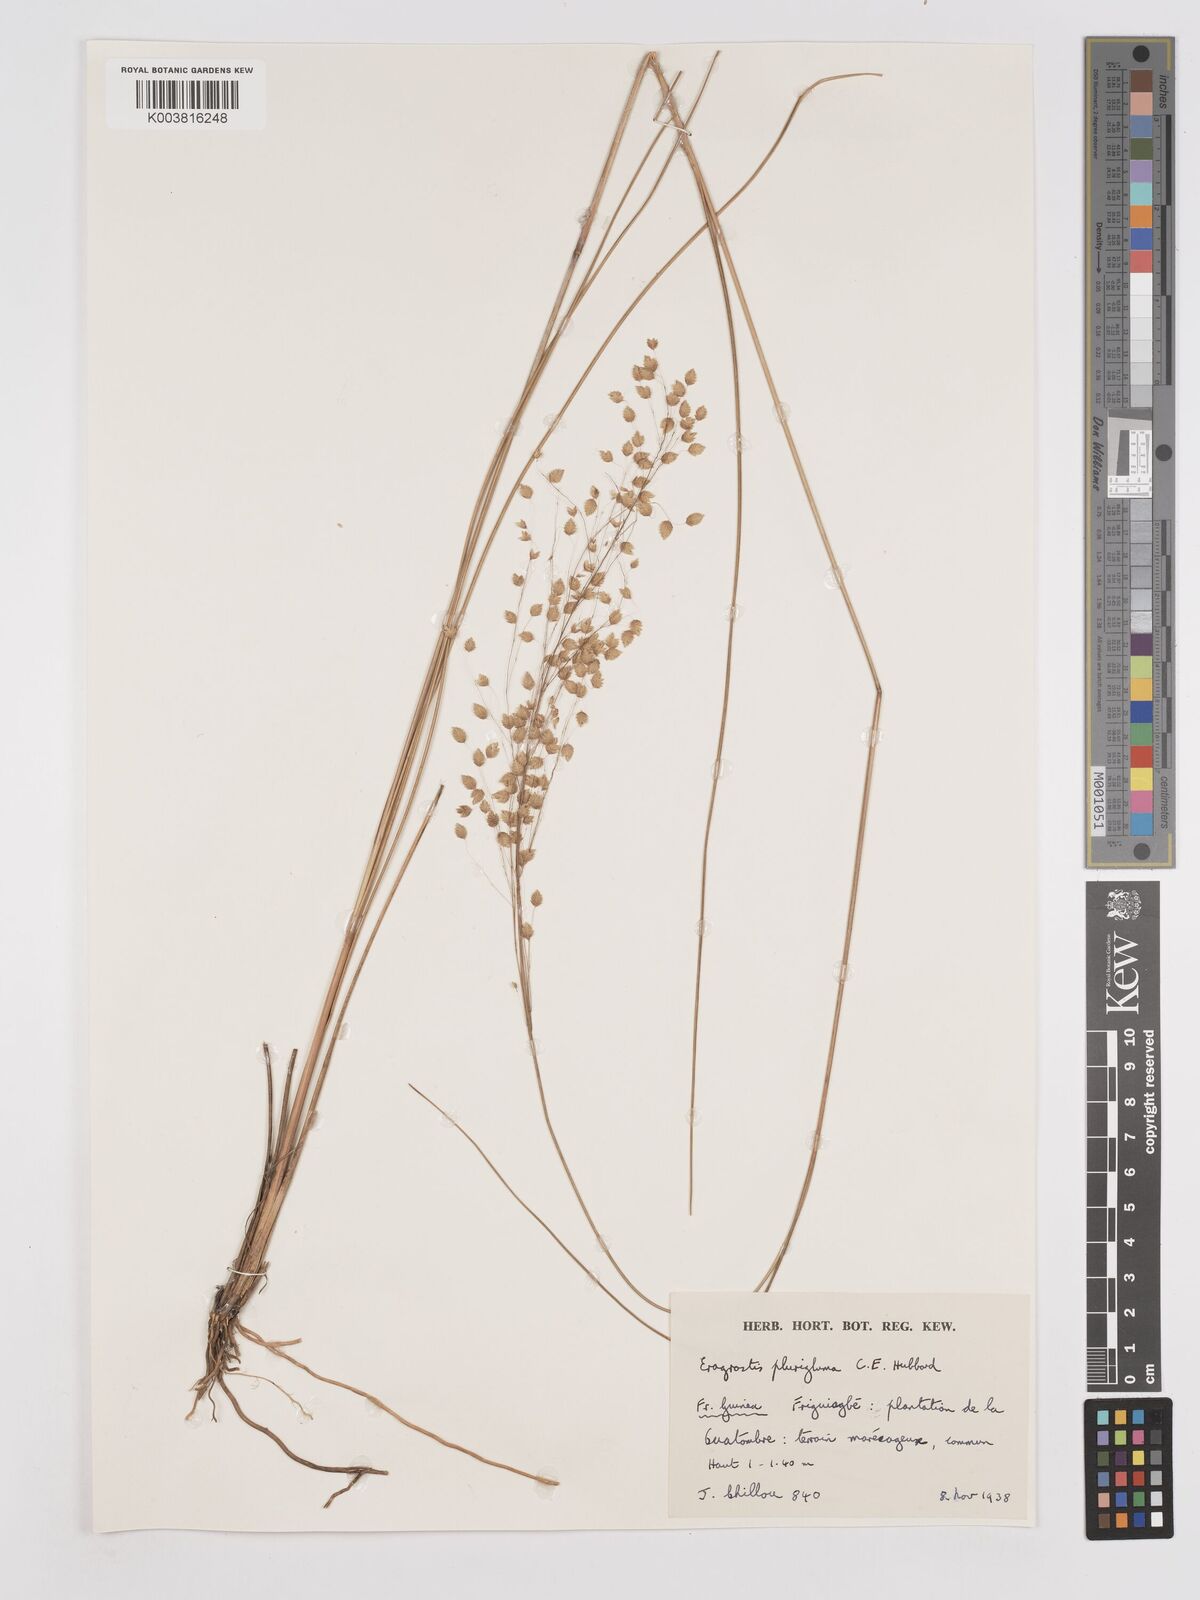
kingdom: Plantae
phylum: Tracheophyta
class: Liliopsida
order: Poales
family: Poaceae
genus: Eragrostis
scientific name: Eragrostis plurigluma
